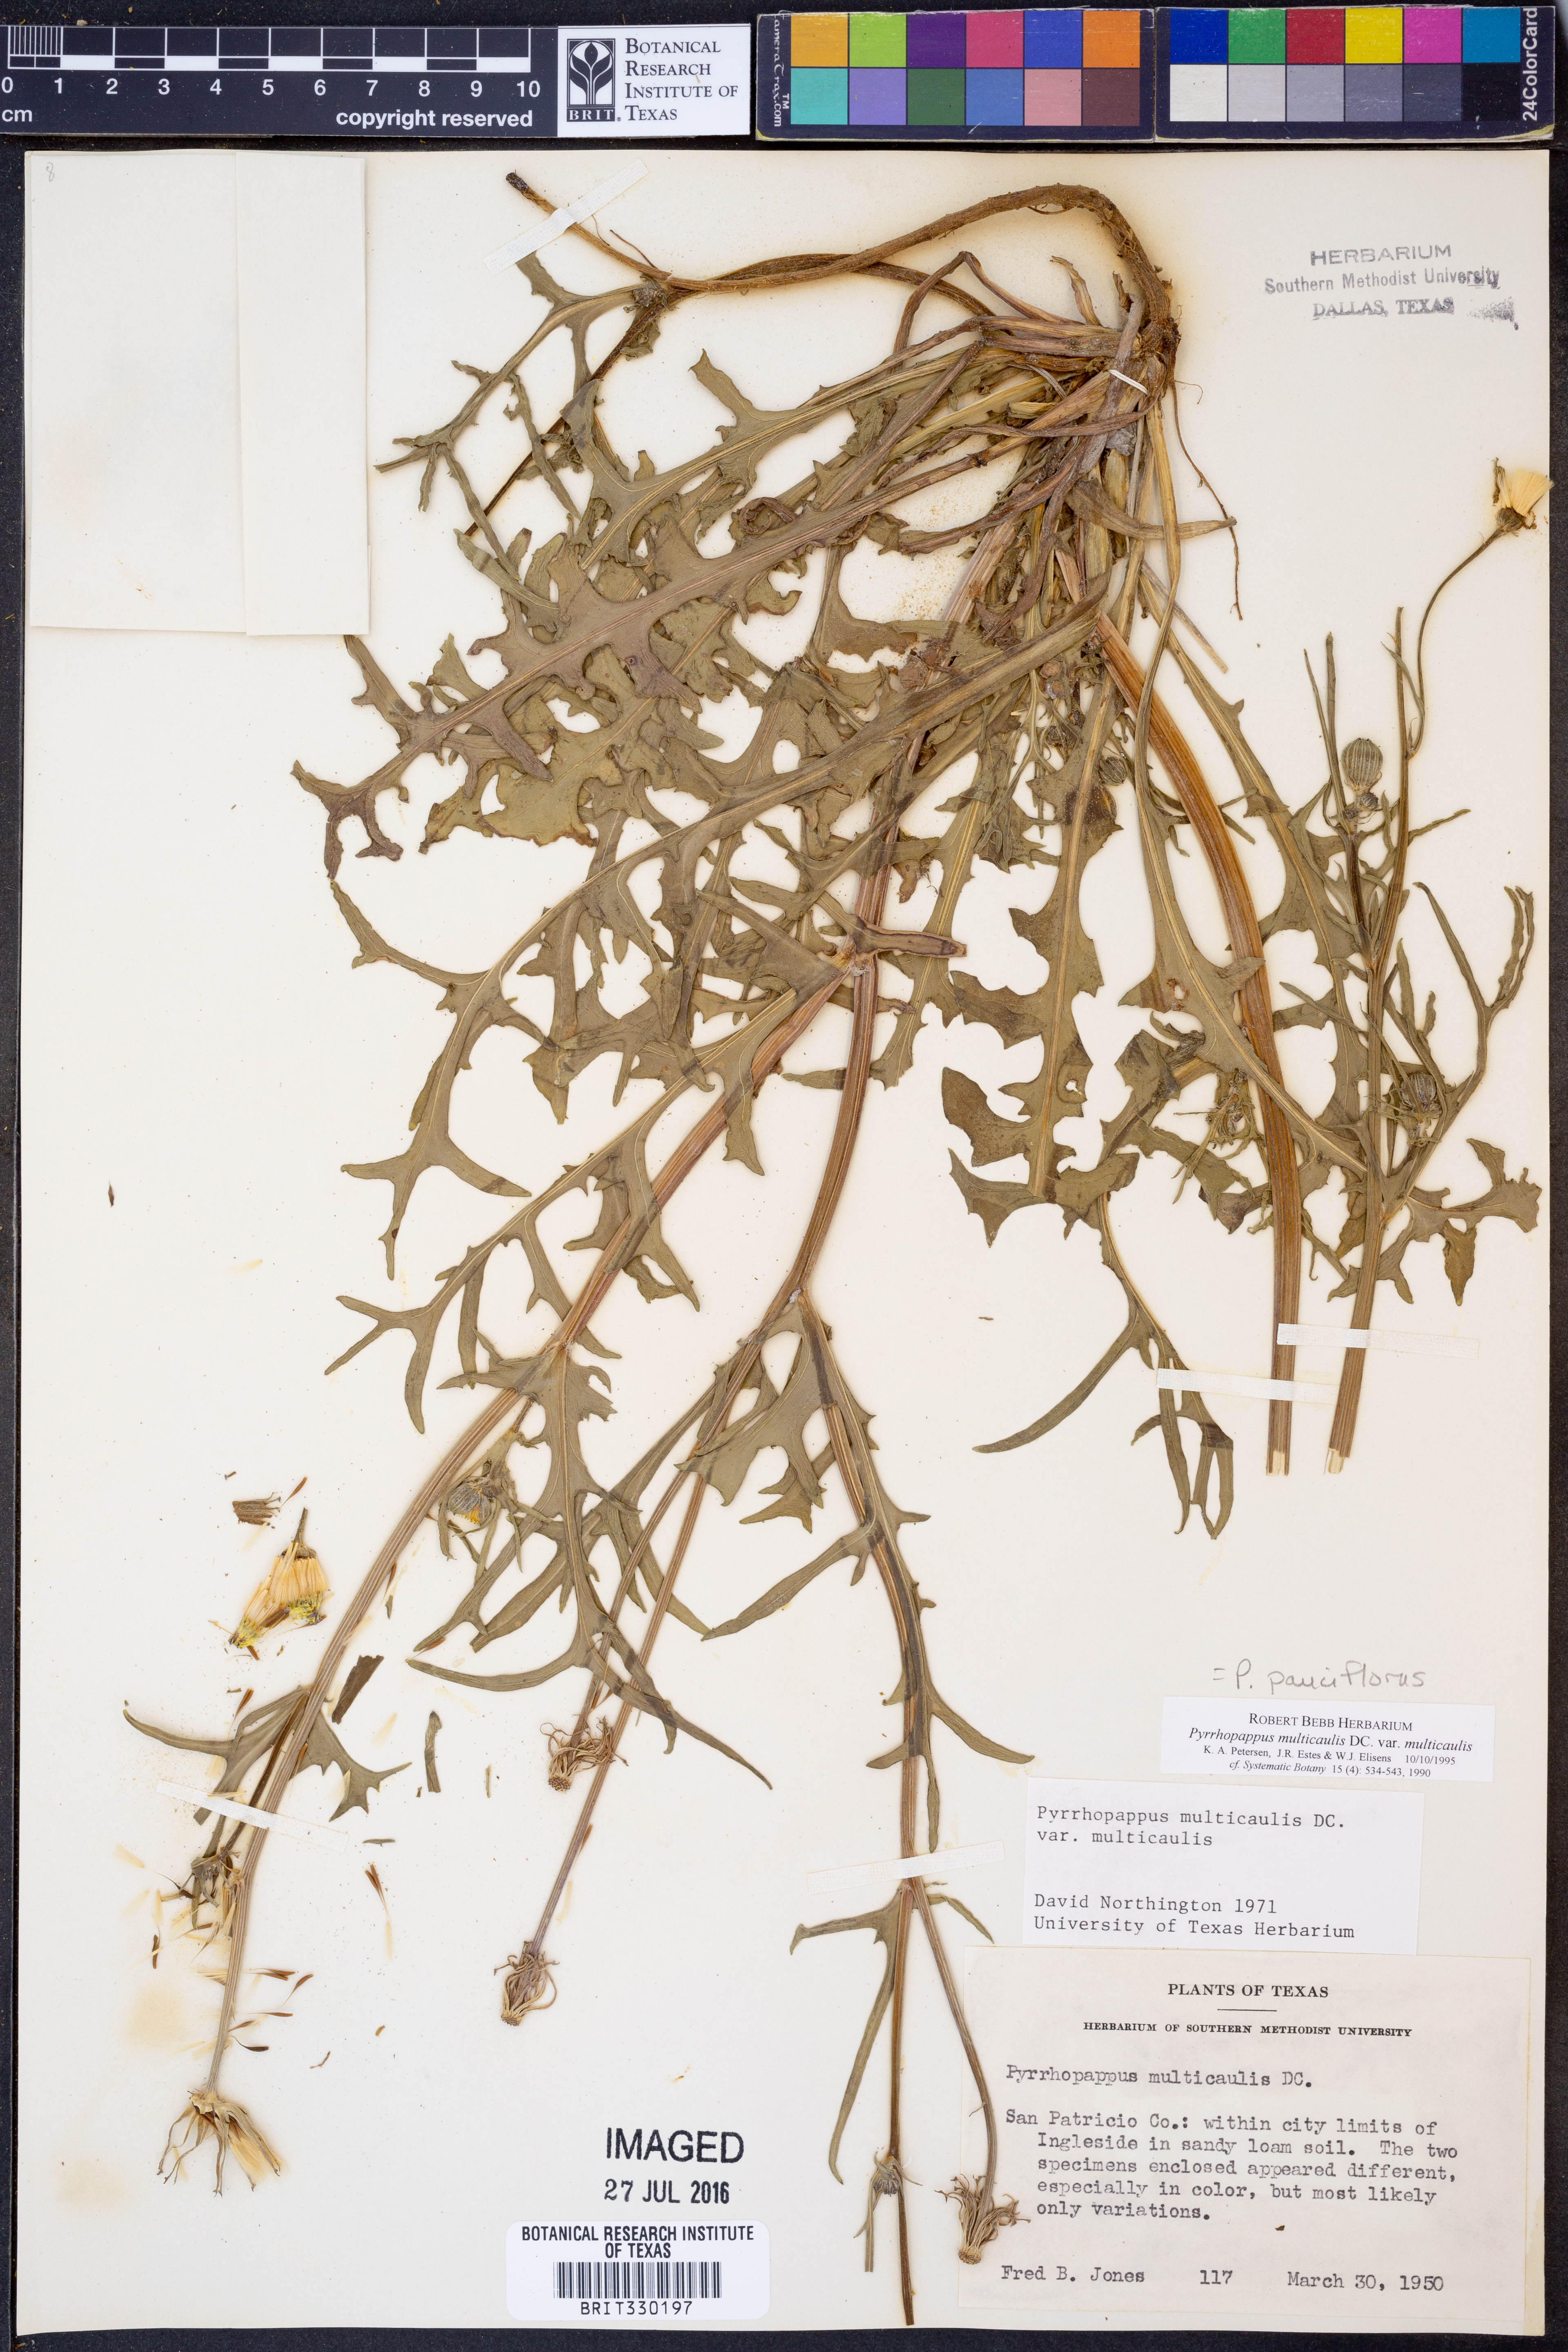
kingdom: Plantae
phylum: Tracheophyta
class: Magnoliopsida
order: Asterales
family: Asteraceae
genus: Pyrrhopappus
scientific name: Pyrrhopappus pauciflorus
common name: Texas false dandelion
